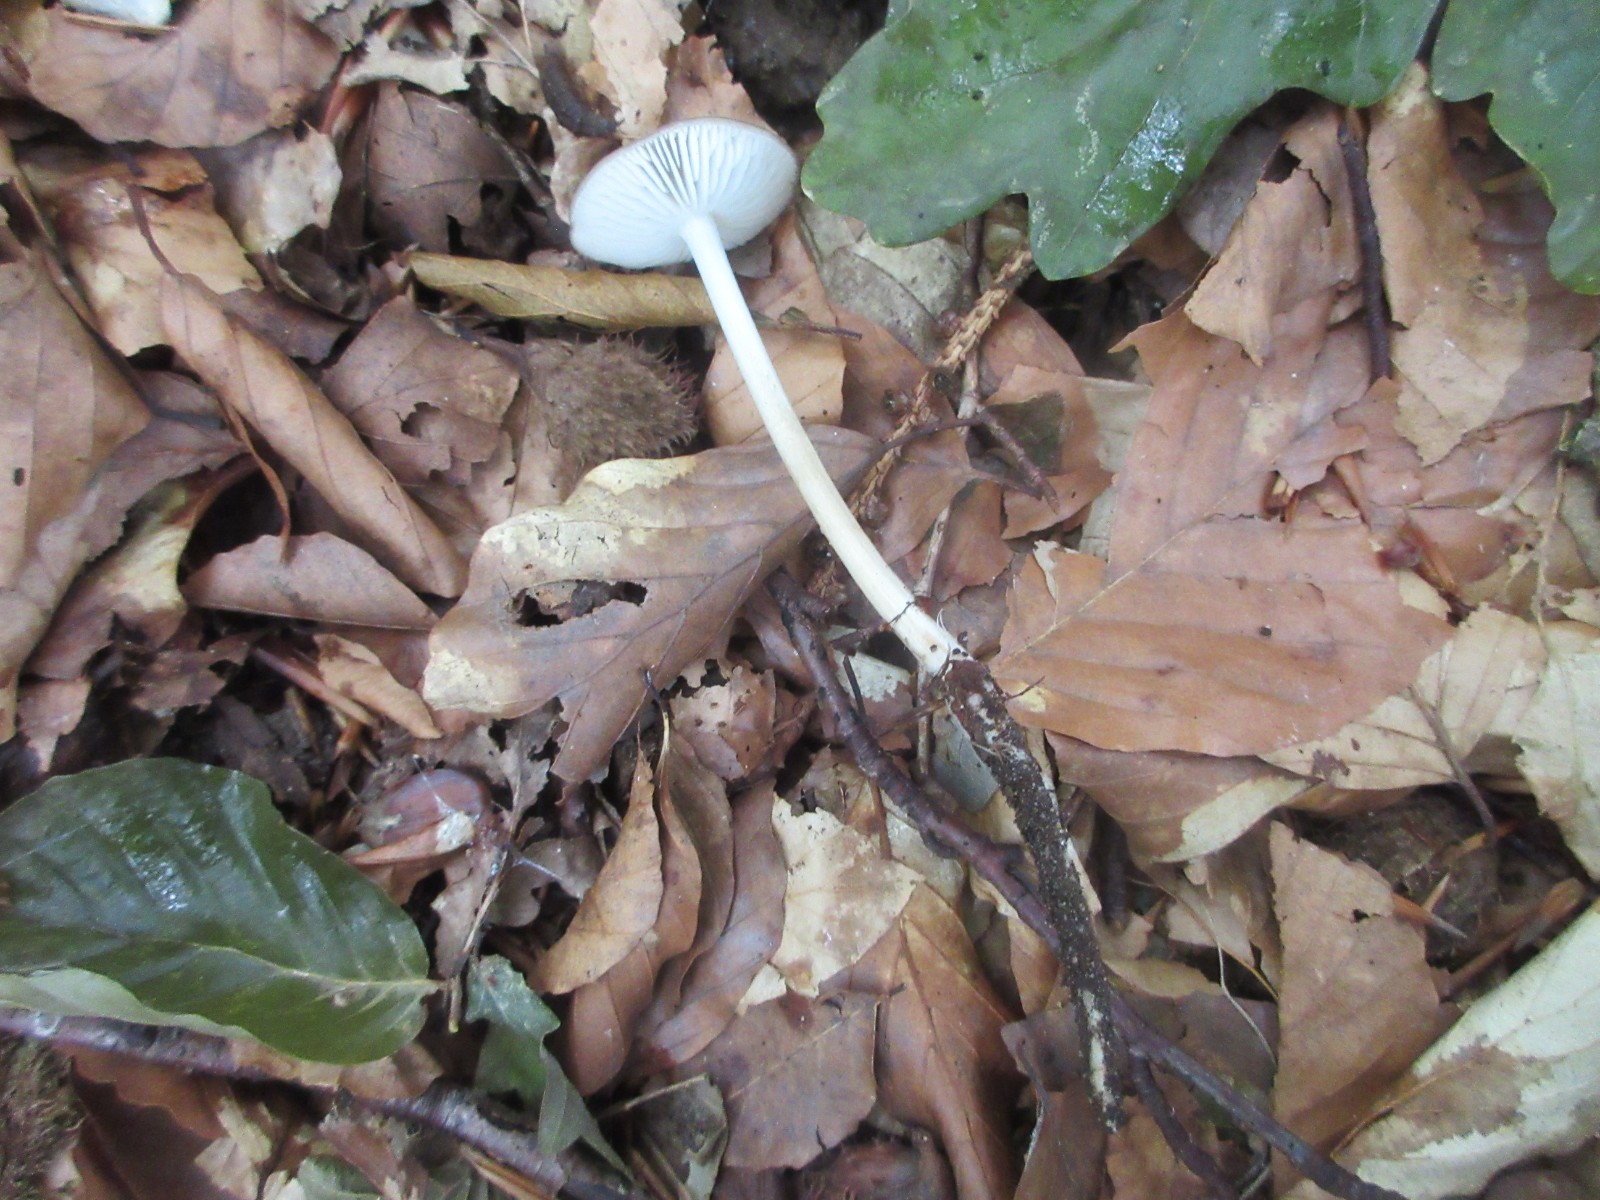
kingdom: Fungi
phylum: Basidiomycota
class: Agaricomycetes
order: Agaricales
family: Physalacriaceae
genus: Hymenopellis
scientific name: Hymenopellis radicata
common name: almindelig pælerodshat
